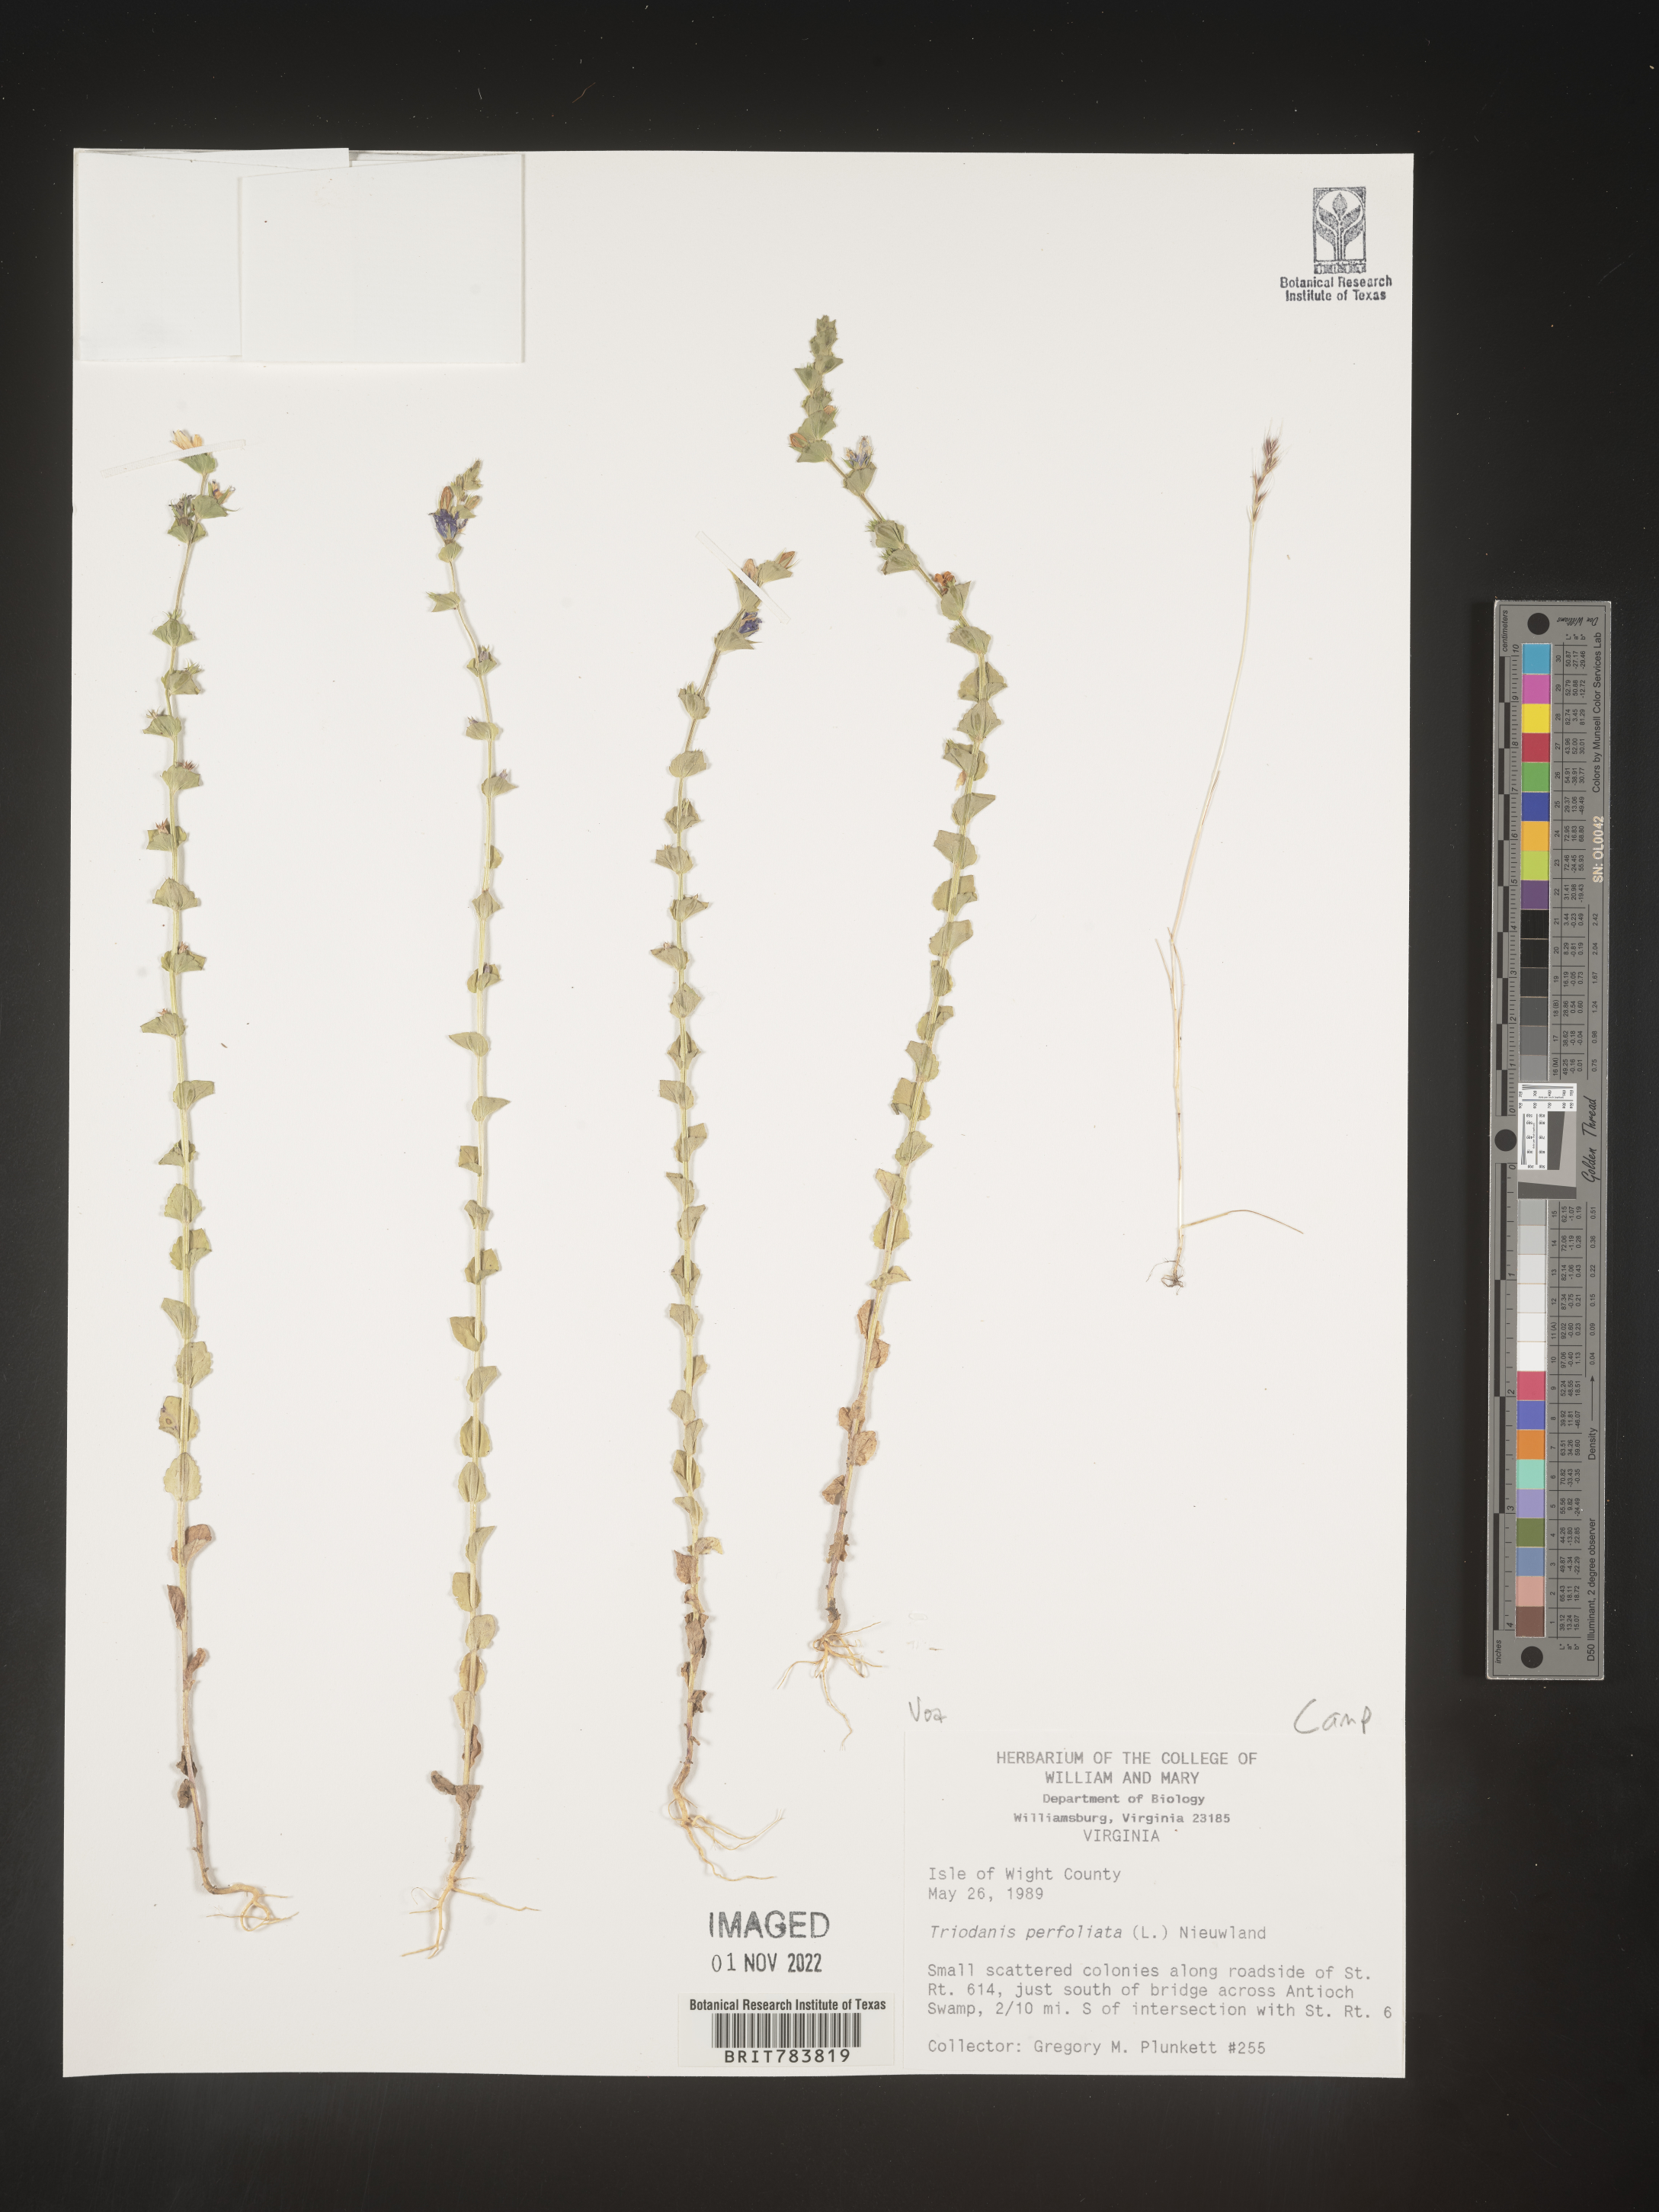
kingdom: Plantae
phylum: Tracheophyta
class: Magnoliopsida
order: Asterales
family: Campanulaceae
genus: Triodanis
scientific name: Triodanis perfoliata
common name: Clasping venus' looking-glass
